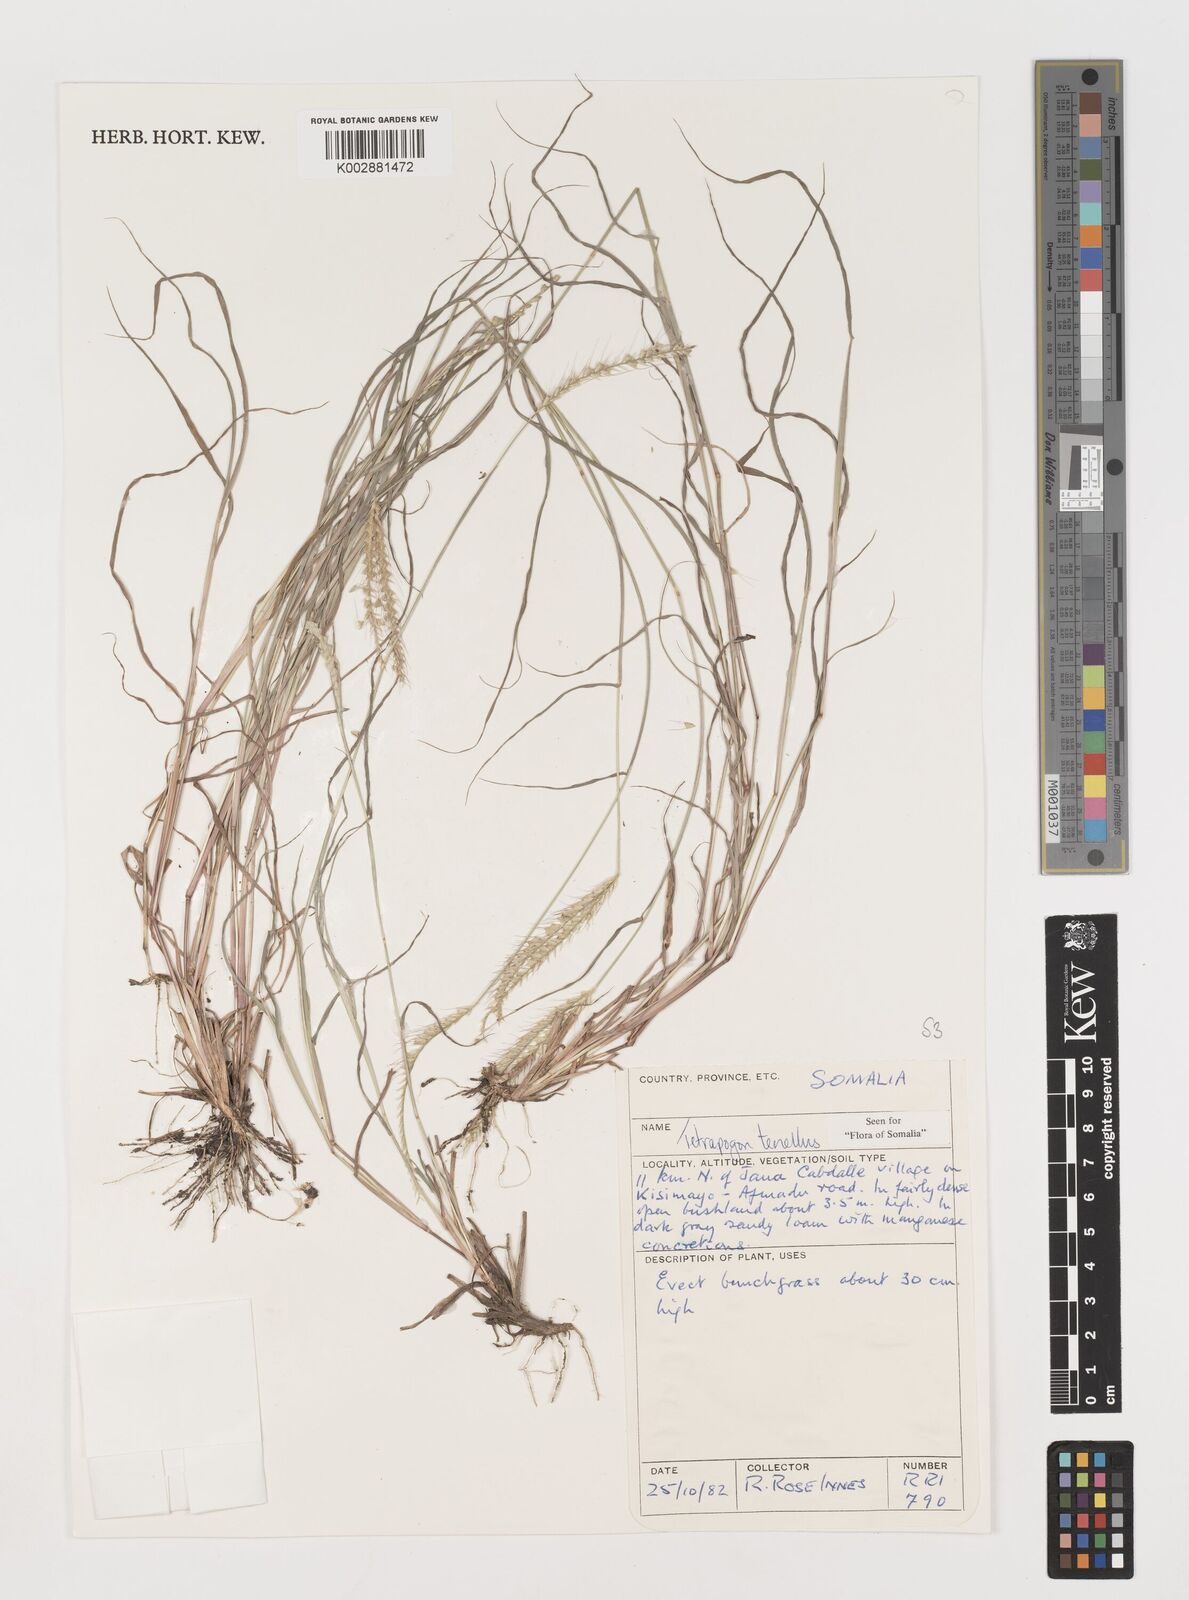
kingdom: Plantae
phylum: Tracheophyta
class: Liliopsida
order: Poales
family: Poaceae
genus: Tetrapogon
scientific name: Tetrapogon tenellus
